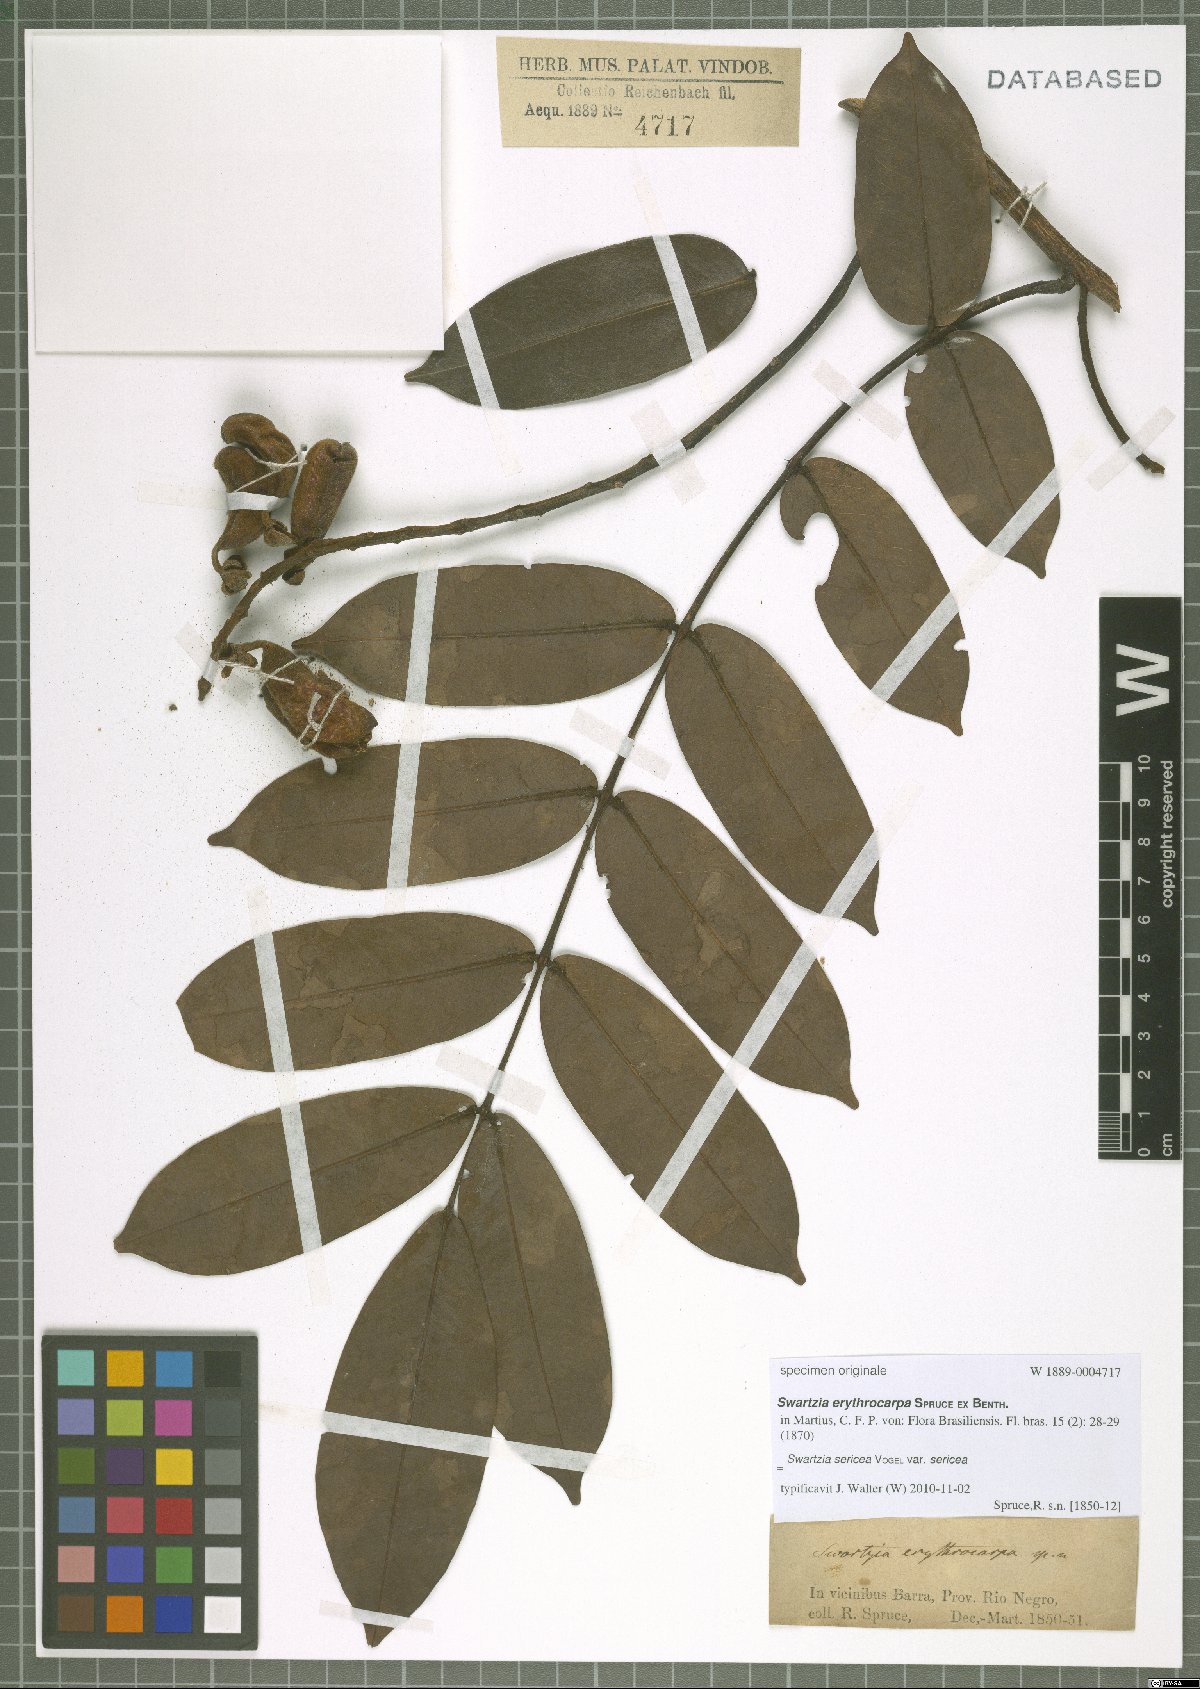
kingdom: Plantae
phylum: Tracheophyta
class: Magnoliopsida
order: Fabales
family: Fabaceae
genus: Swartzia
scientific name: Swartzia sericea
